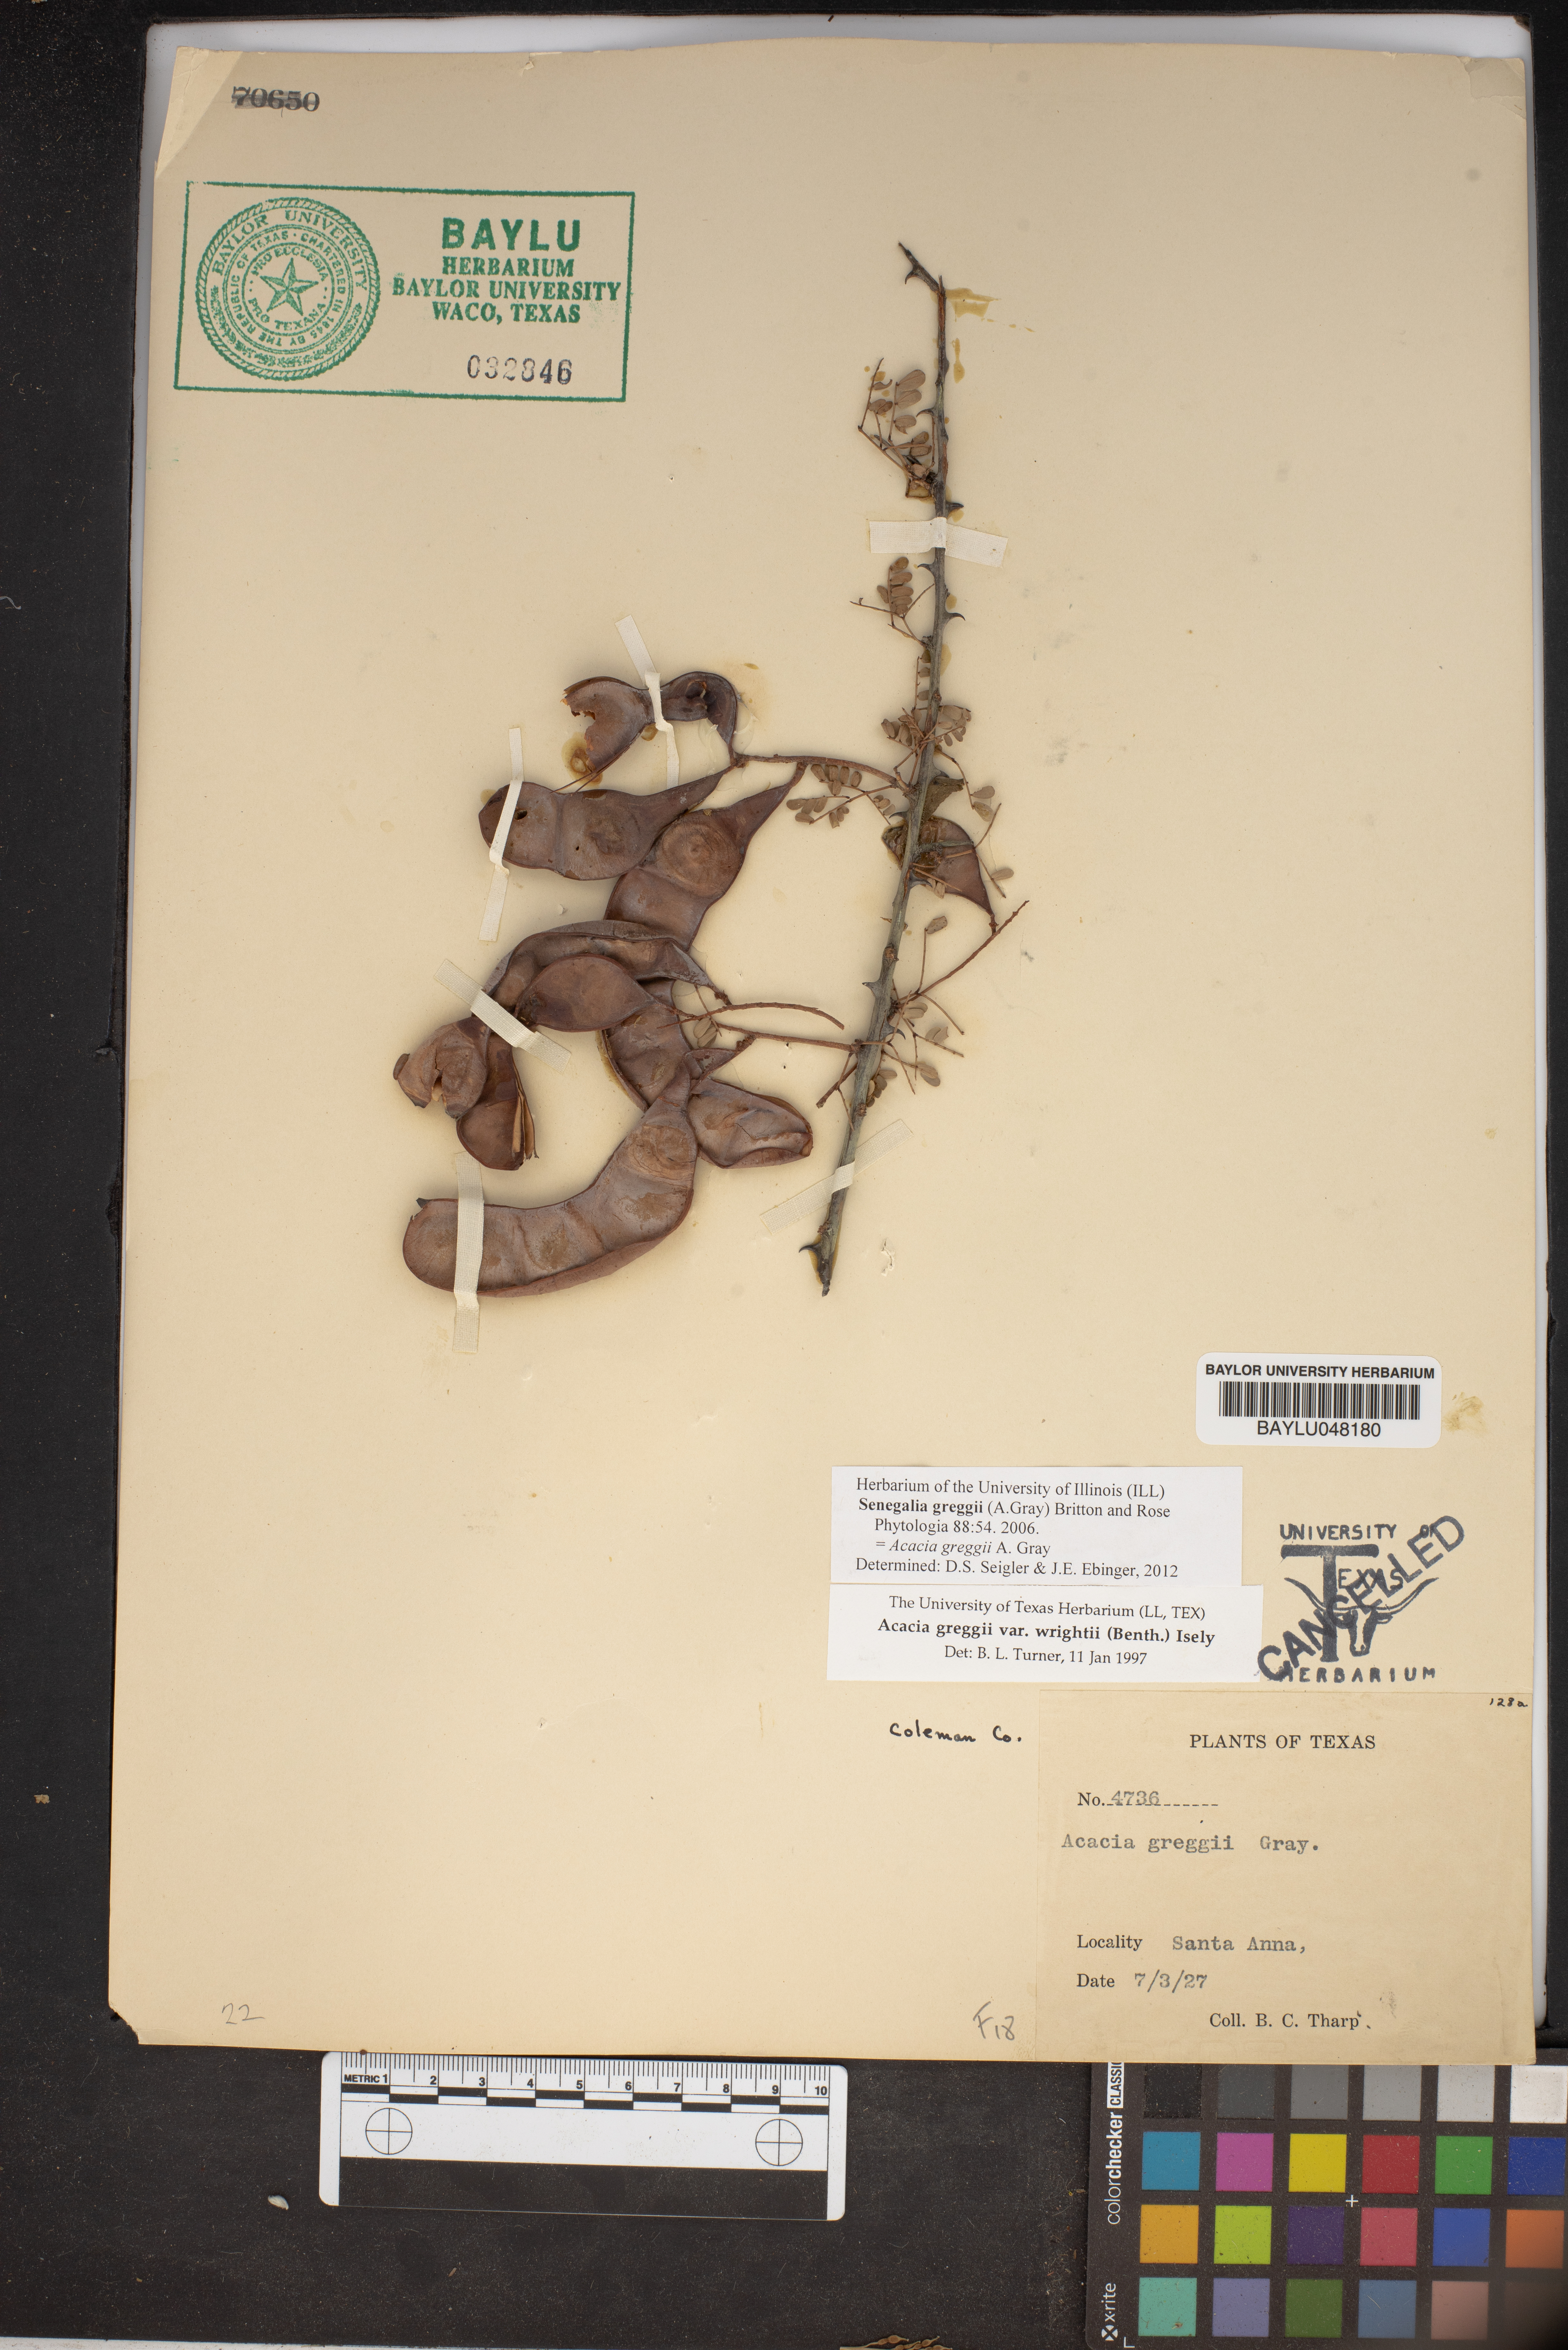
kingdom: Plantae
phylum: Tracheophyta
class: Magnoliopsida
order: Fabales
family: Fabaceae
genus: Senegalia
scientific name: Senegalia greggii
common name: Texas-mimosa
